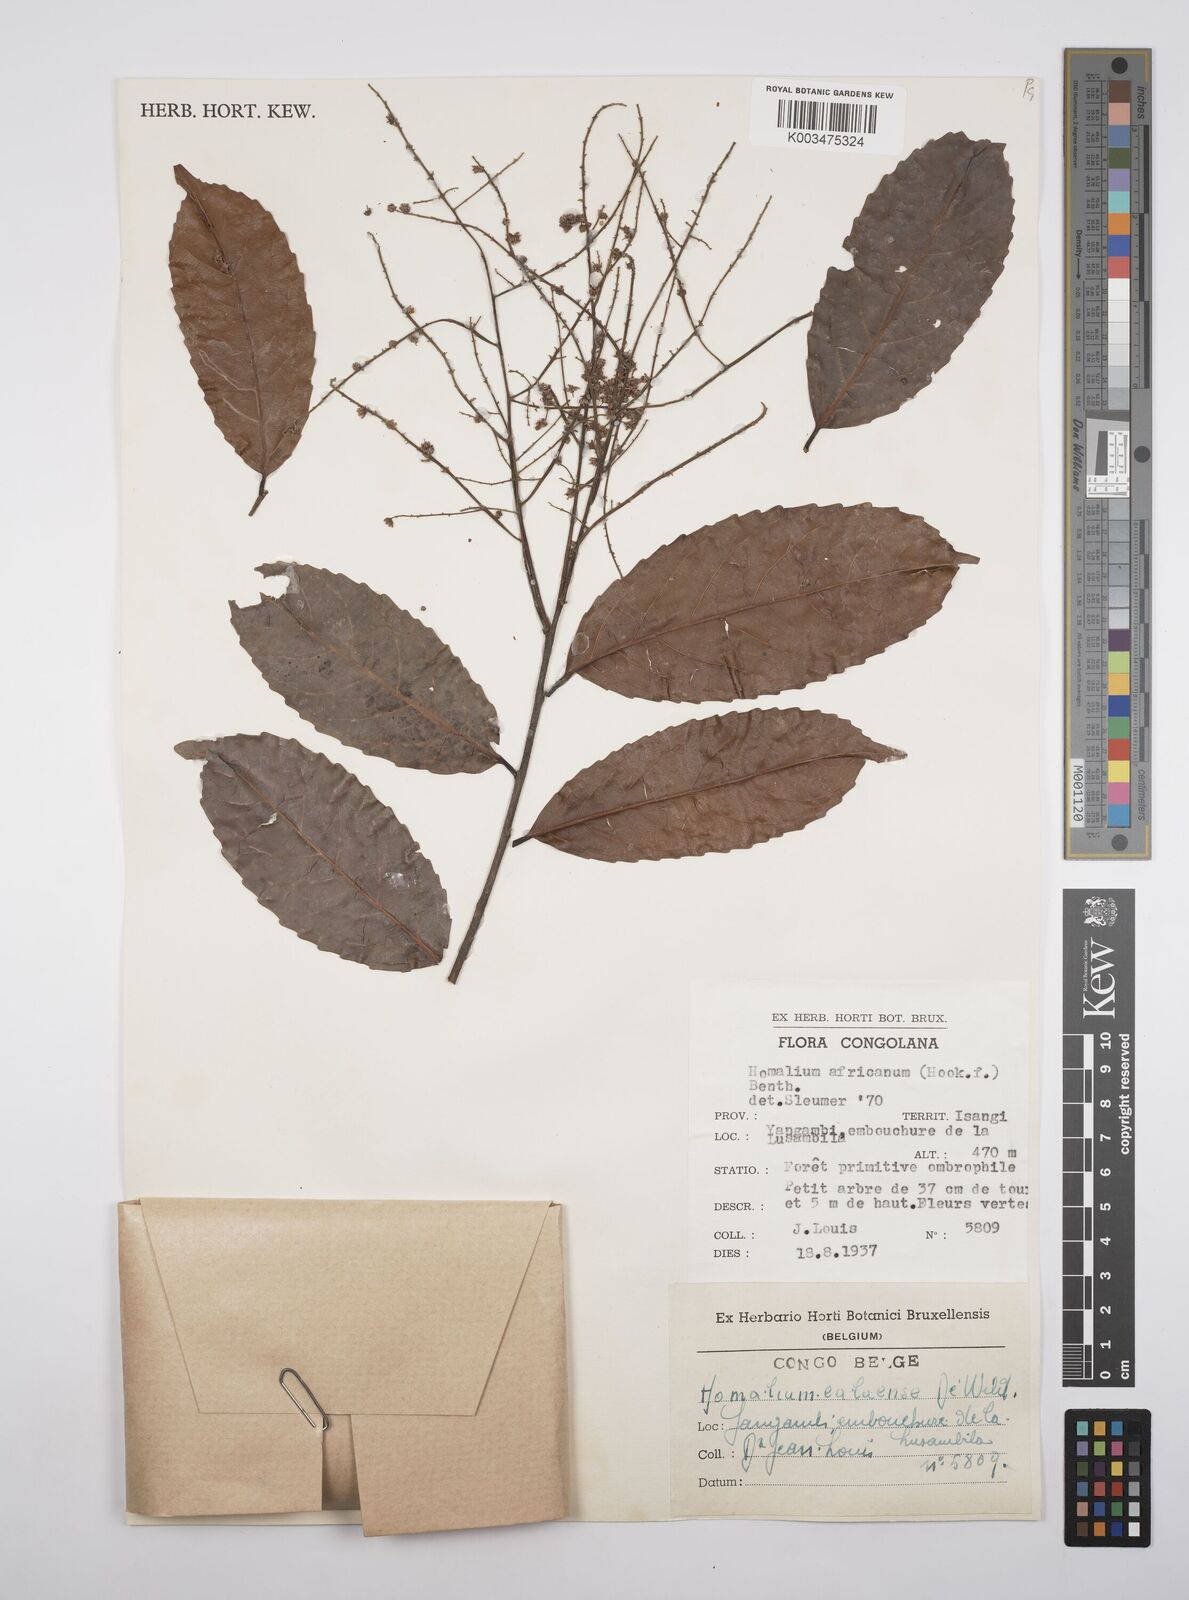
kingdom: Plantae
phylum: Tracheophyta
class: Magnoliopsida
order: Malpighiales
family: Salicaceae
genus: Homalium
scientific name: Homalium africanum
